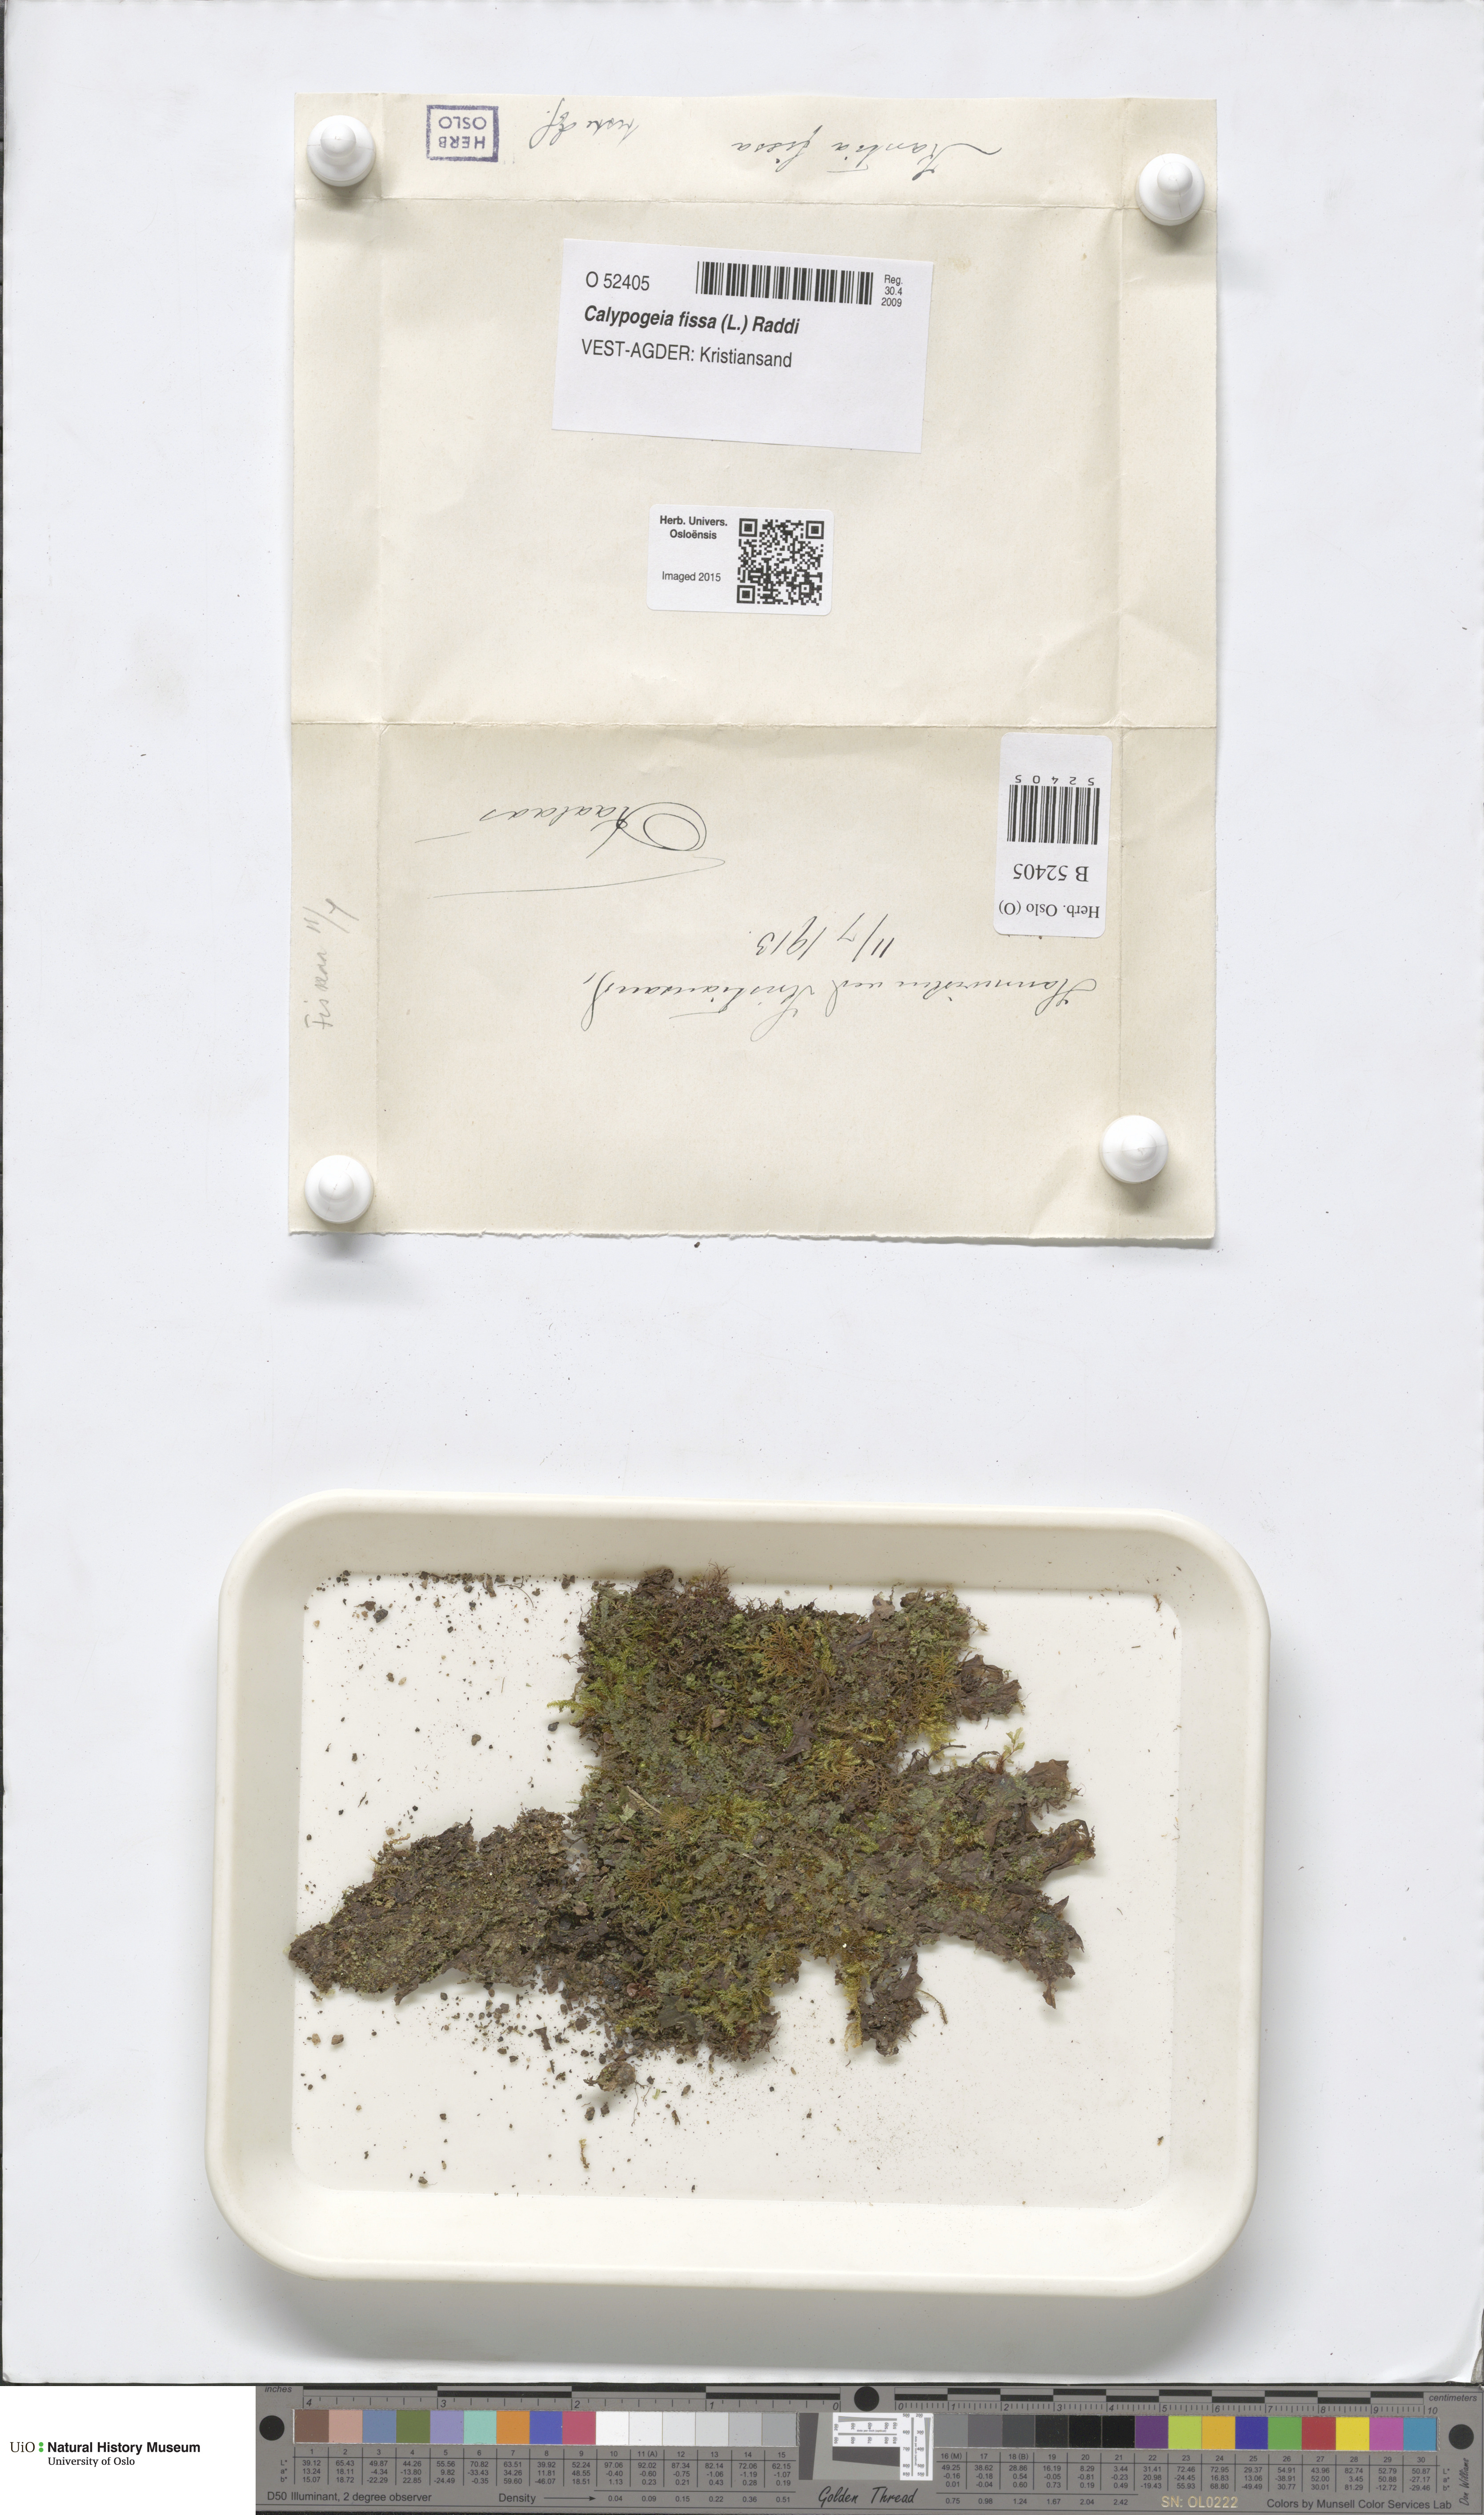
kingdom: Plantae
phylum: Marchantiophyta
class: Jungermanniopsida
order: Jungermanniales
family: Calypogeiaceae
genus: Calypogeia
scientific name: Calypogeia fissa
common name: Common pouchwort
